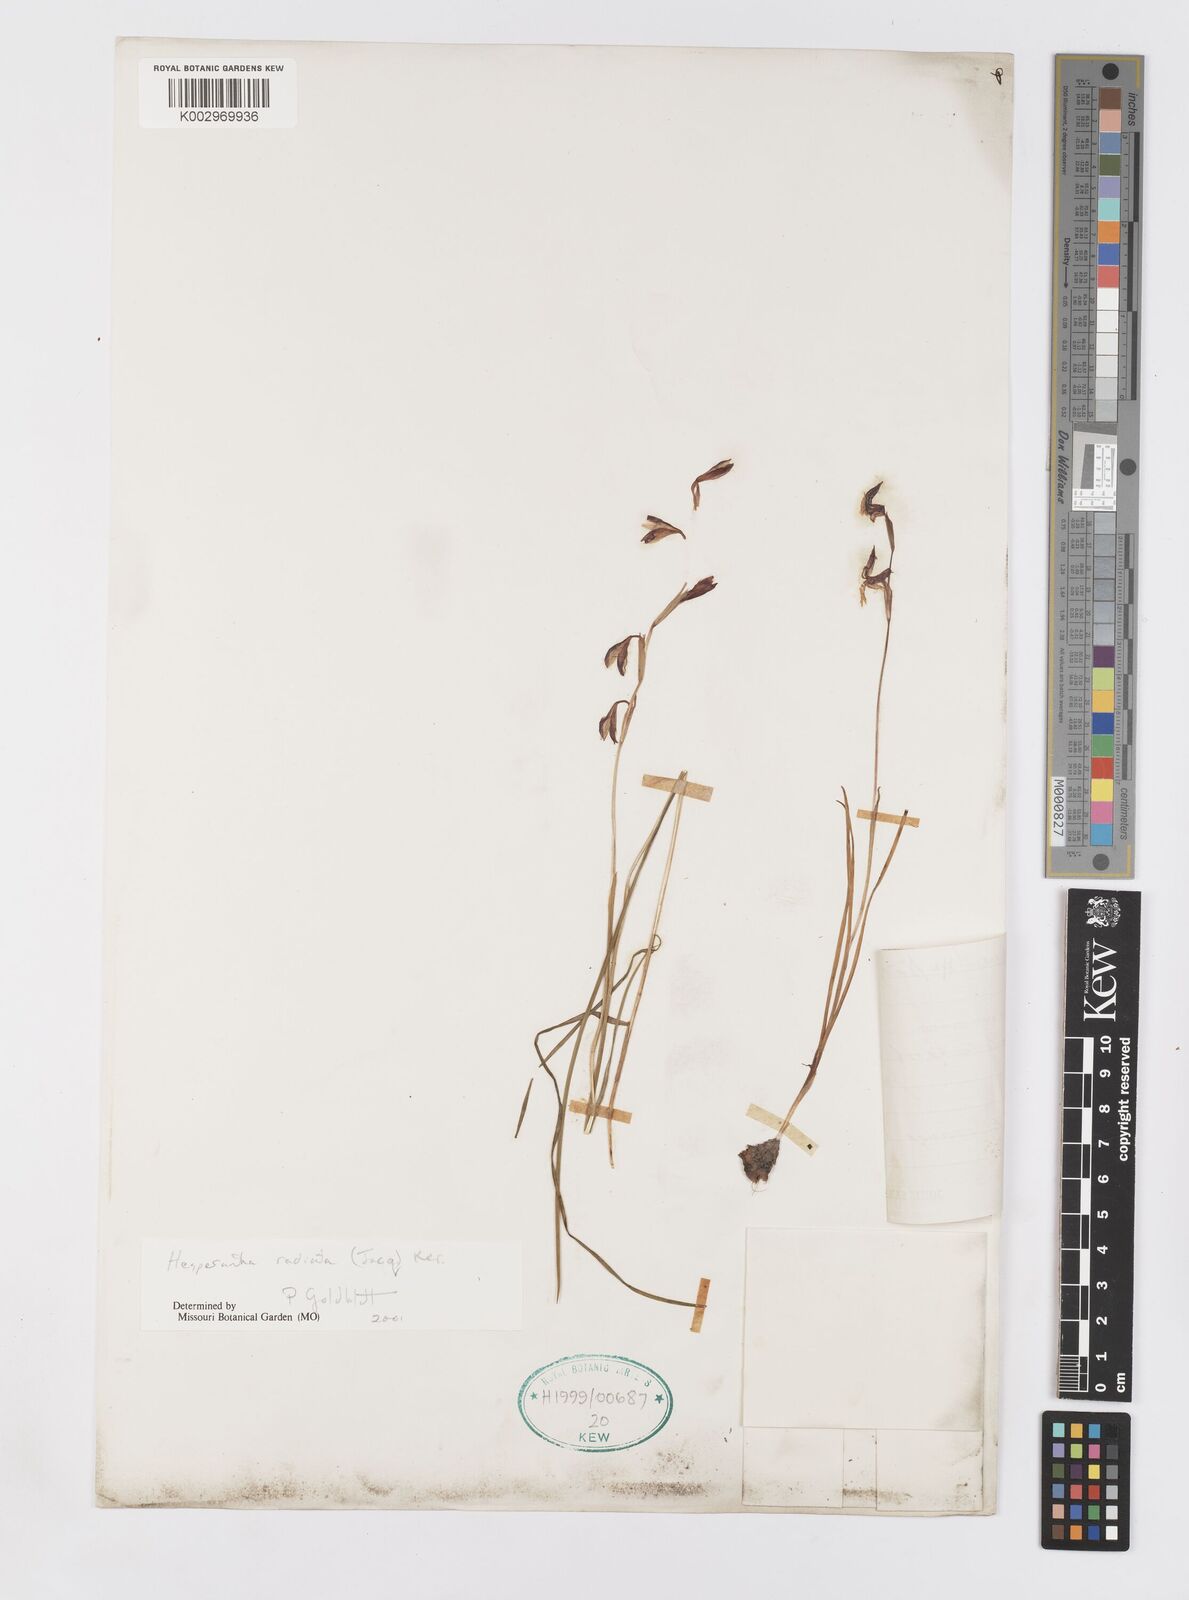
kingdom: Plantae
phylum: Tracheophyta
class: Liliopsida
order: Asparagales
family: Iridaceae
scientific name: Iridaceae
